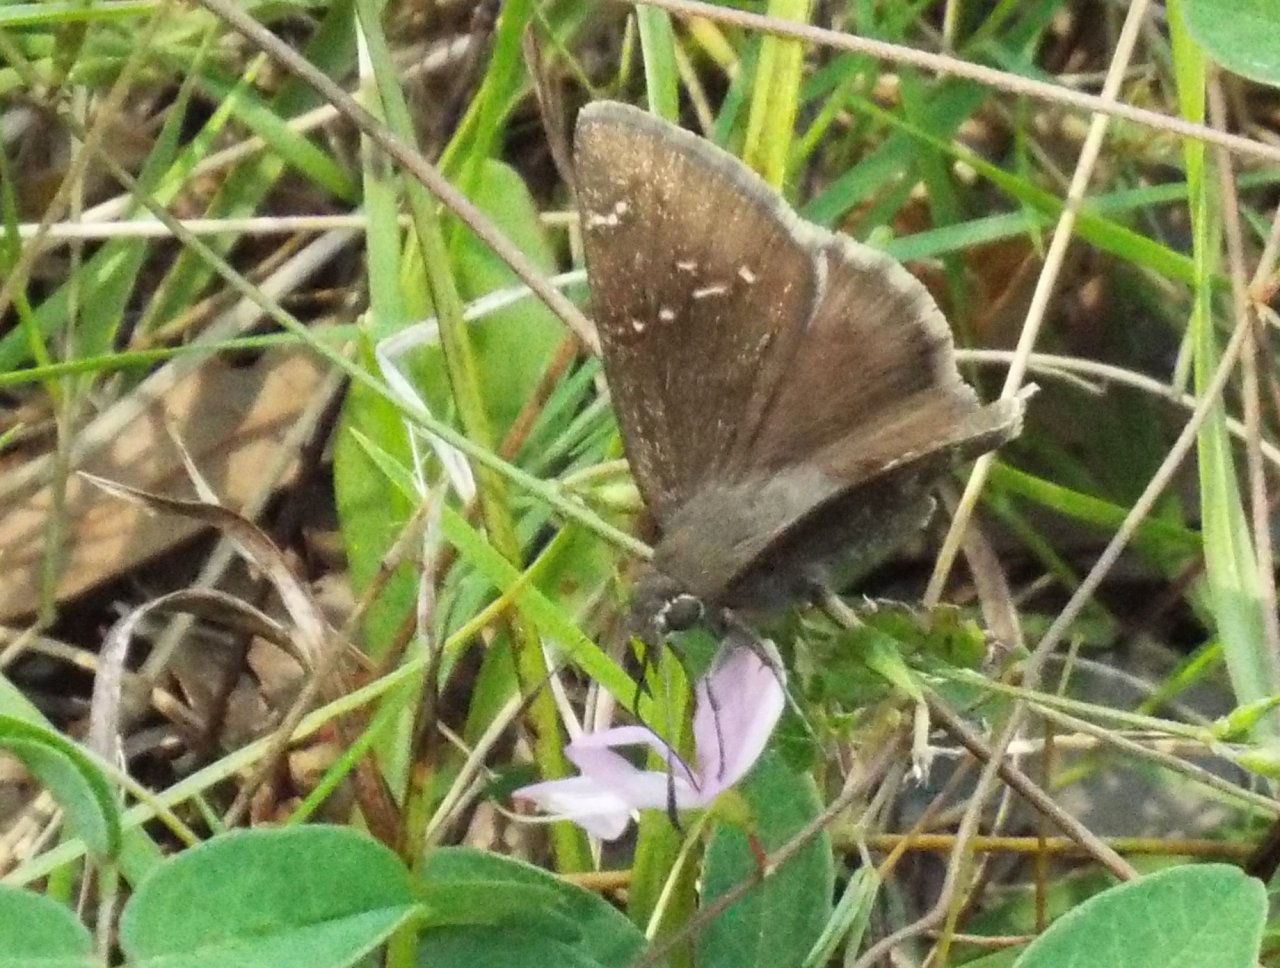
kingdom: Animalia
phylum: Arthropoda
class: Insecta
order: Lepidoptera
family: Hesperiidae
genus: Thorybes
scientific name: Thorybes mexicana
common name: Confused Cloudywing
